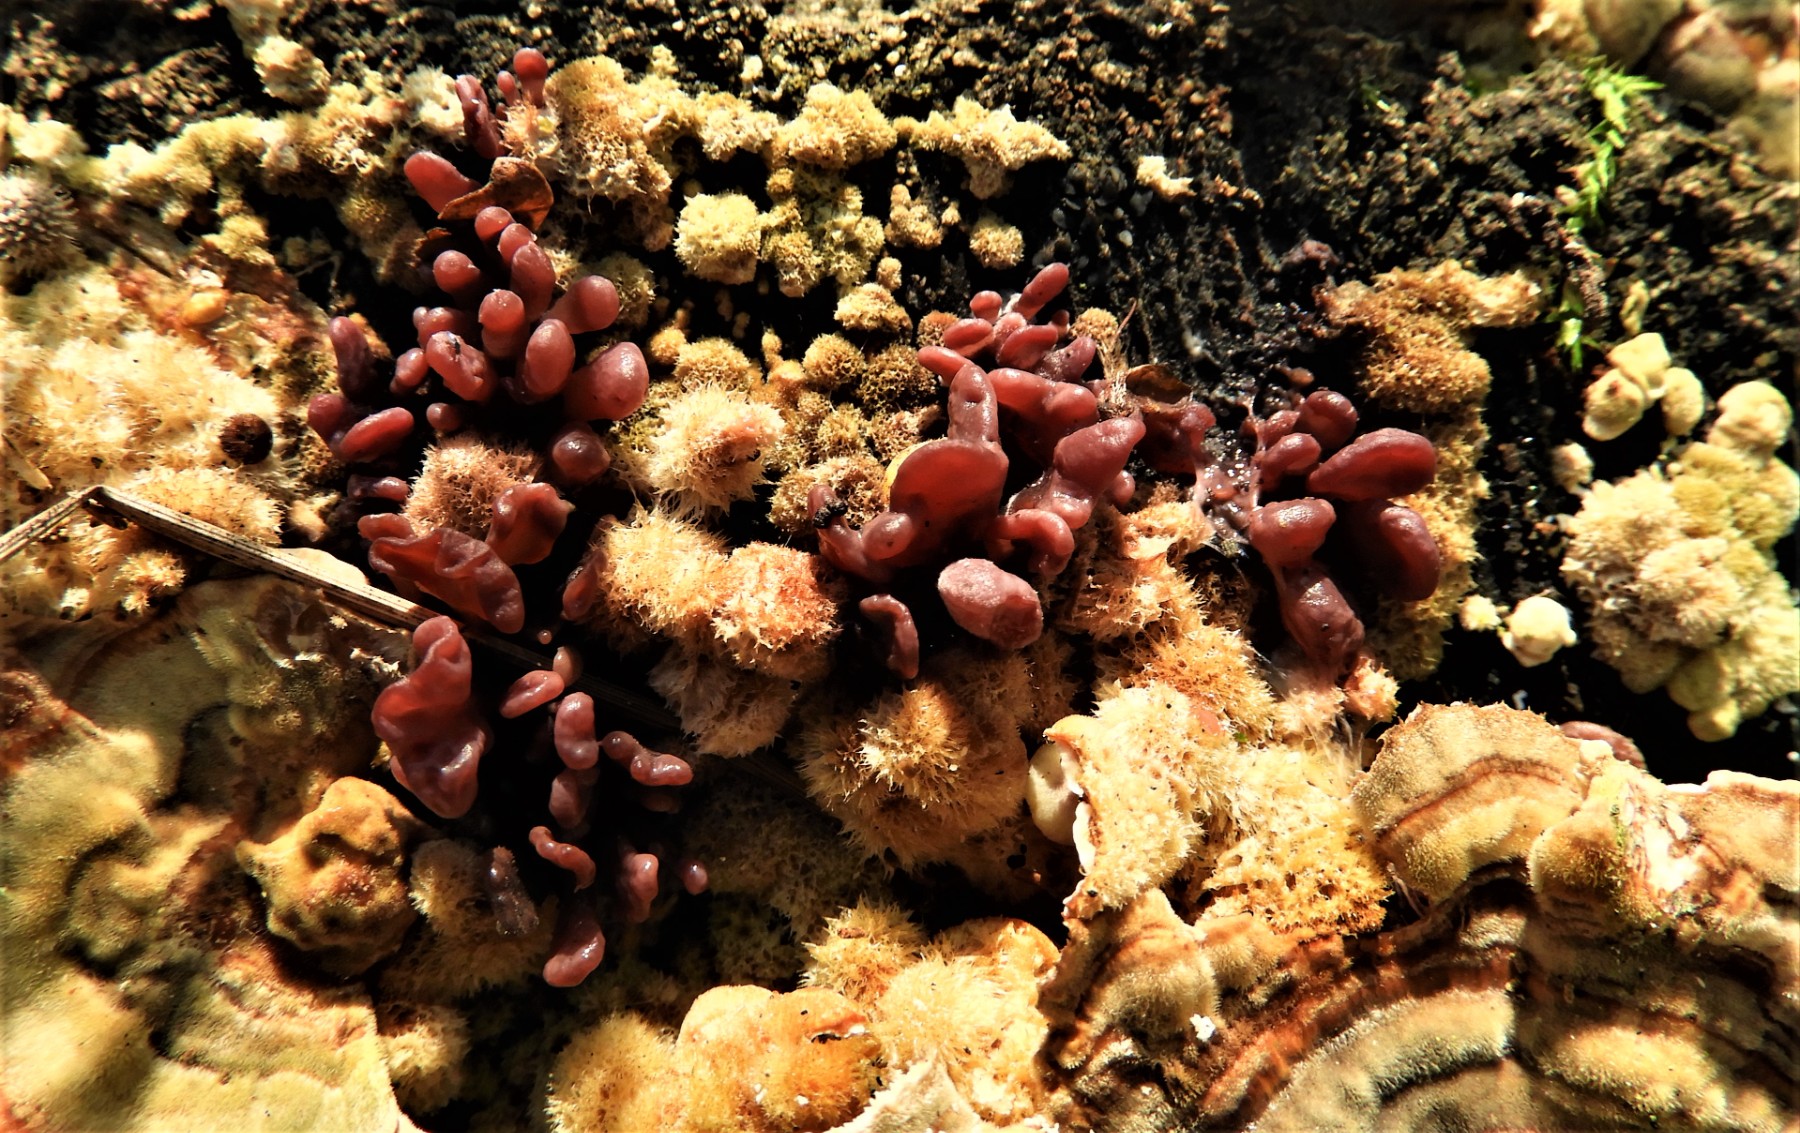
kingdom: Fungi
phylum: Ascomycota
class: Leotiomycetes
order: Helotiales
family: Gelatinodiscaceae
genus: Ascocoryne
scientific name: Ascocoryne sarcoides
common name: rødlilla sejskive
